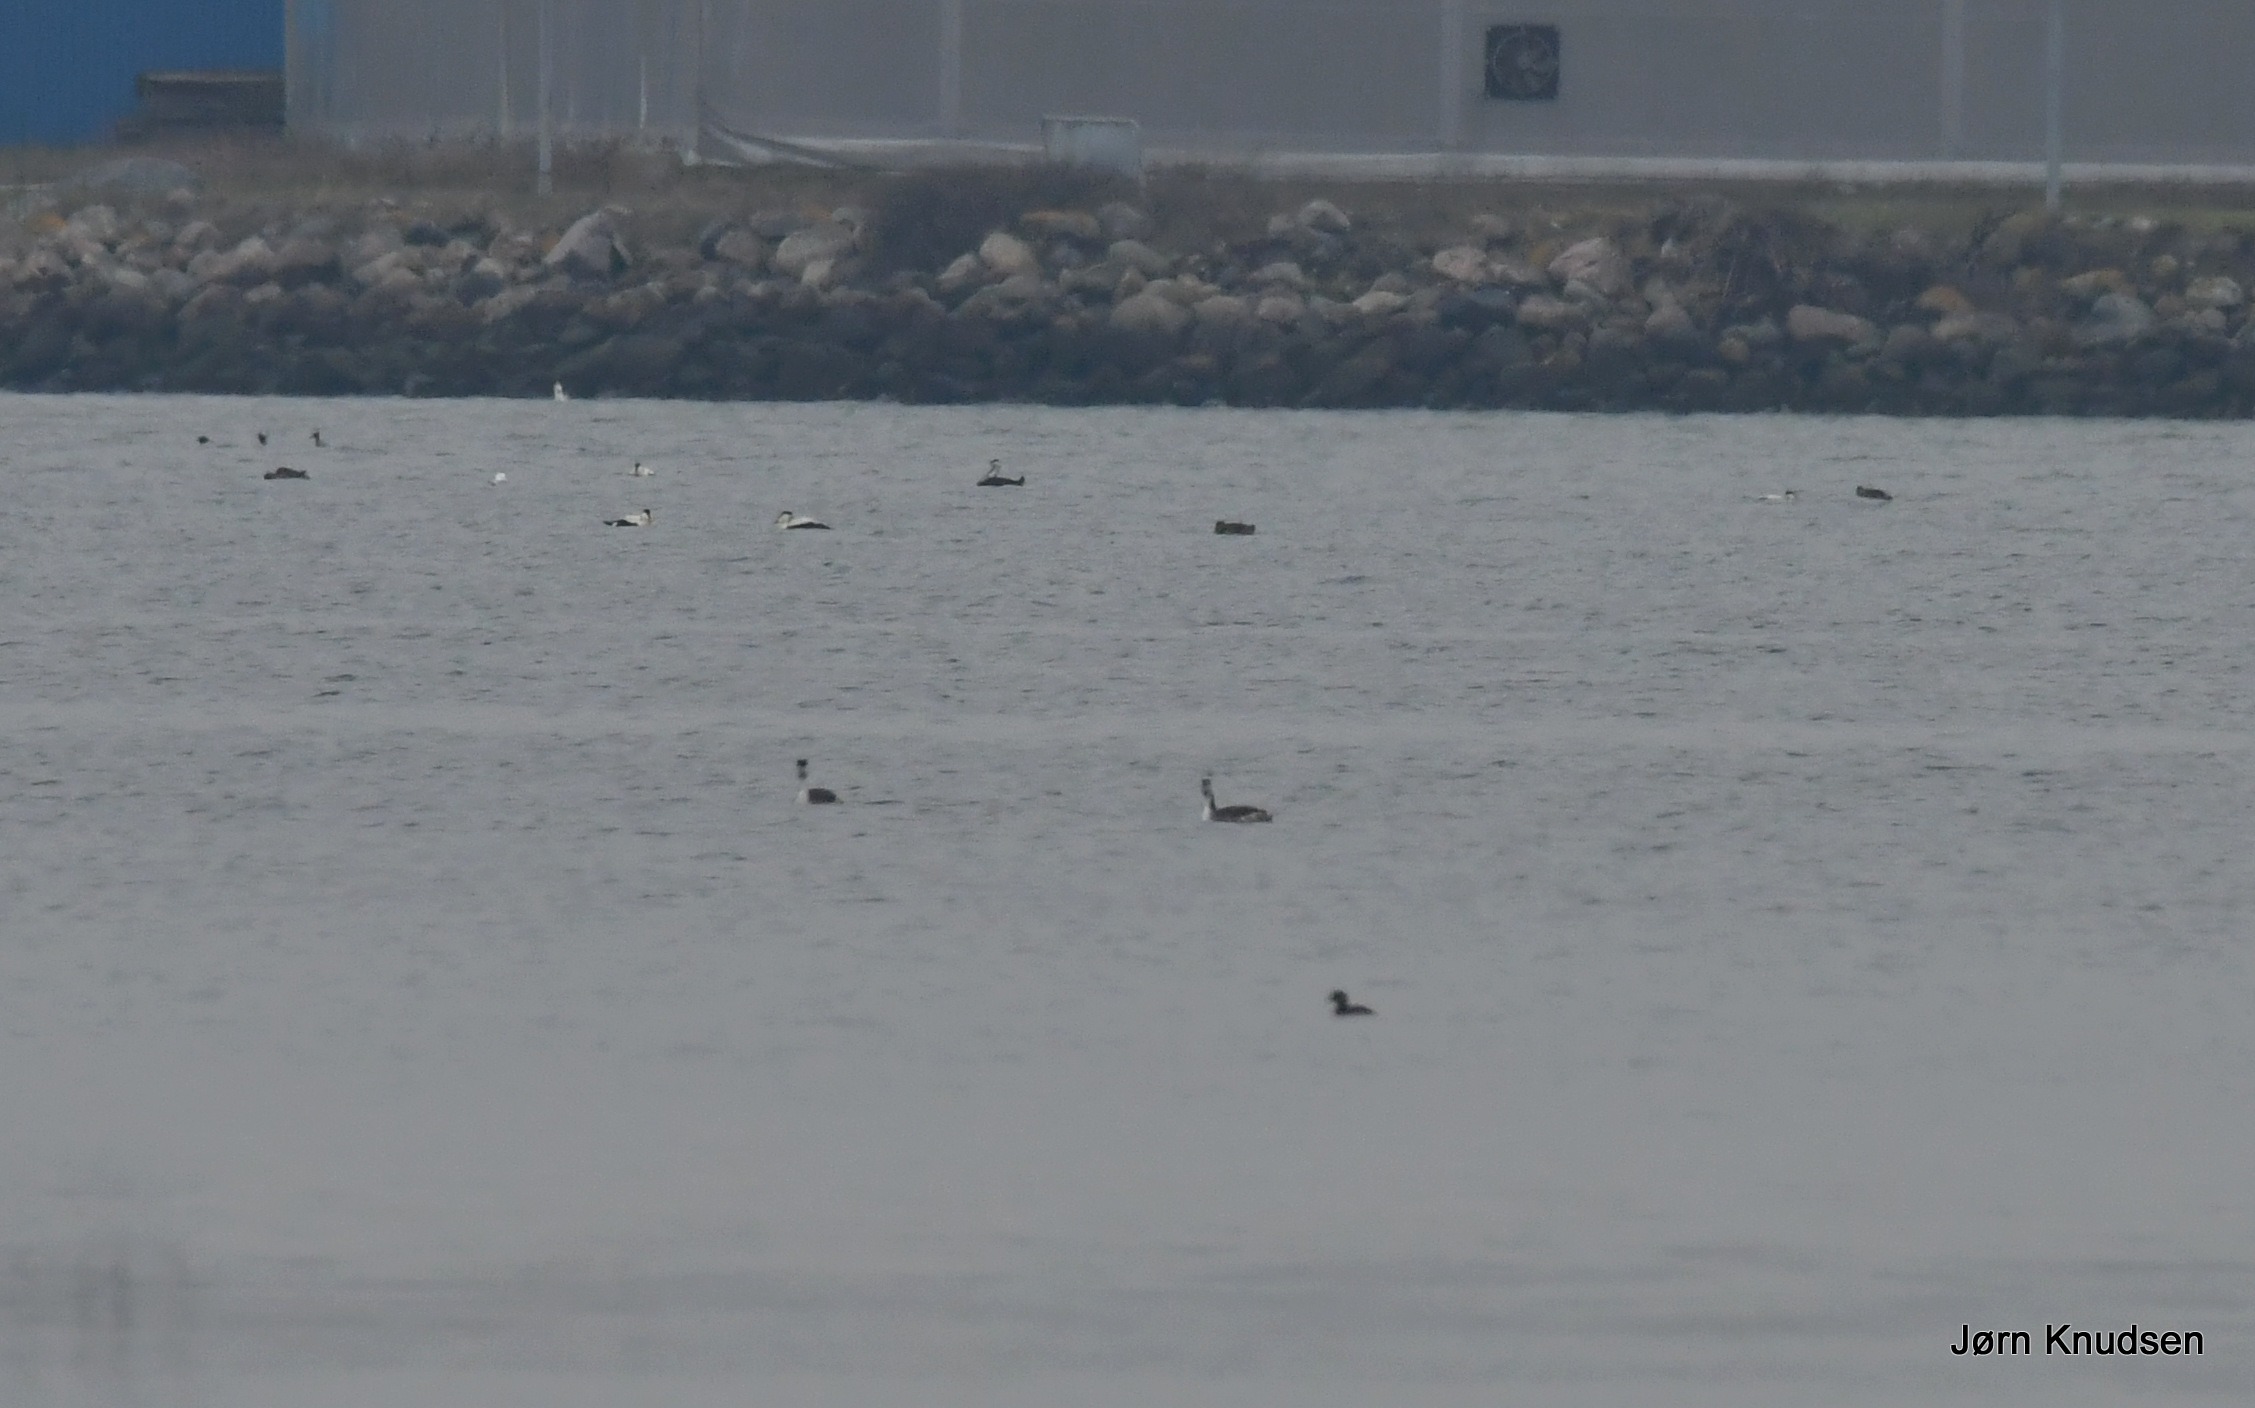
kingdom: Animalia
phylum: Chordata
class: Aves
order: Podicipediformes
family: Podicipedidae
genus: Podiceps
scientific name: Podiceps cristatus
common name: Toppet lappedykker
